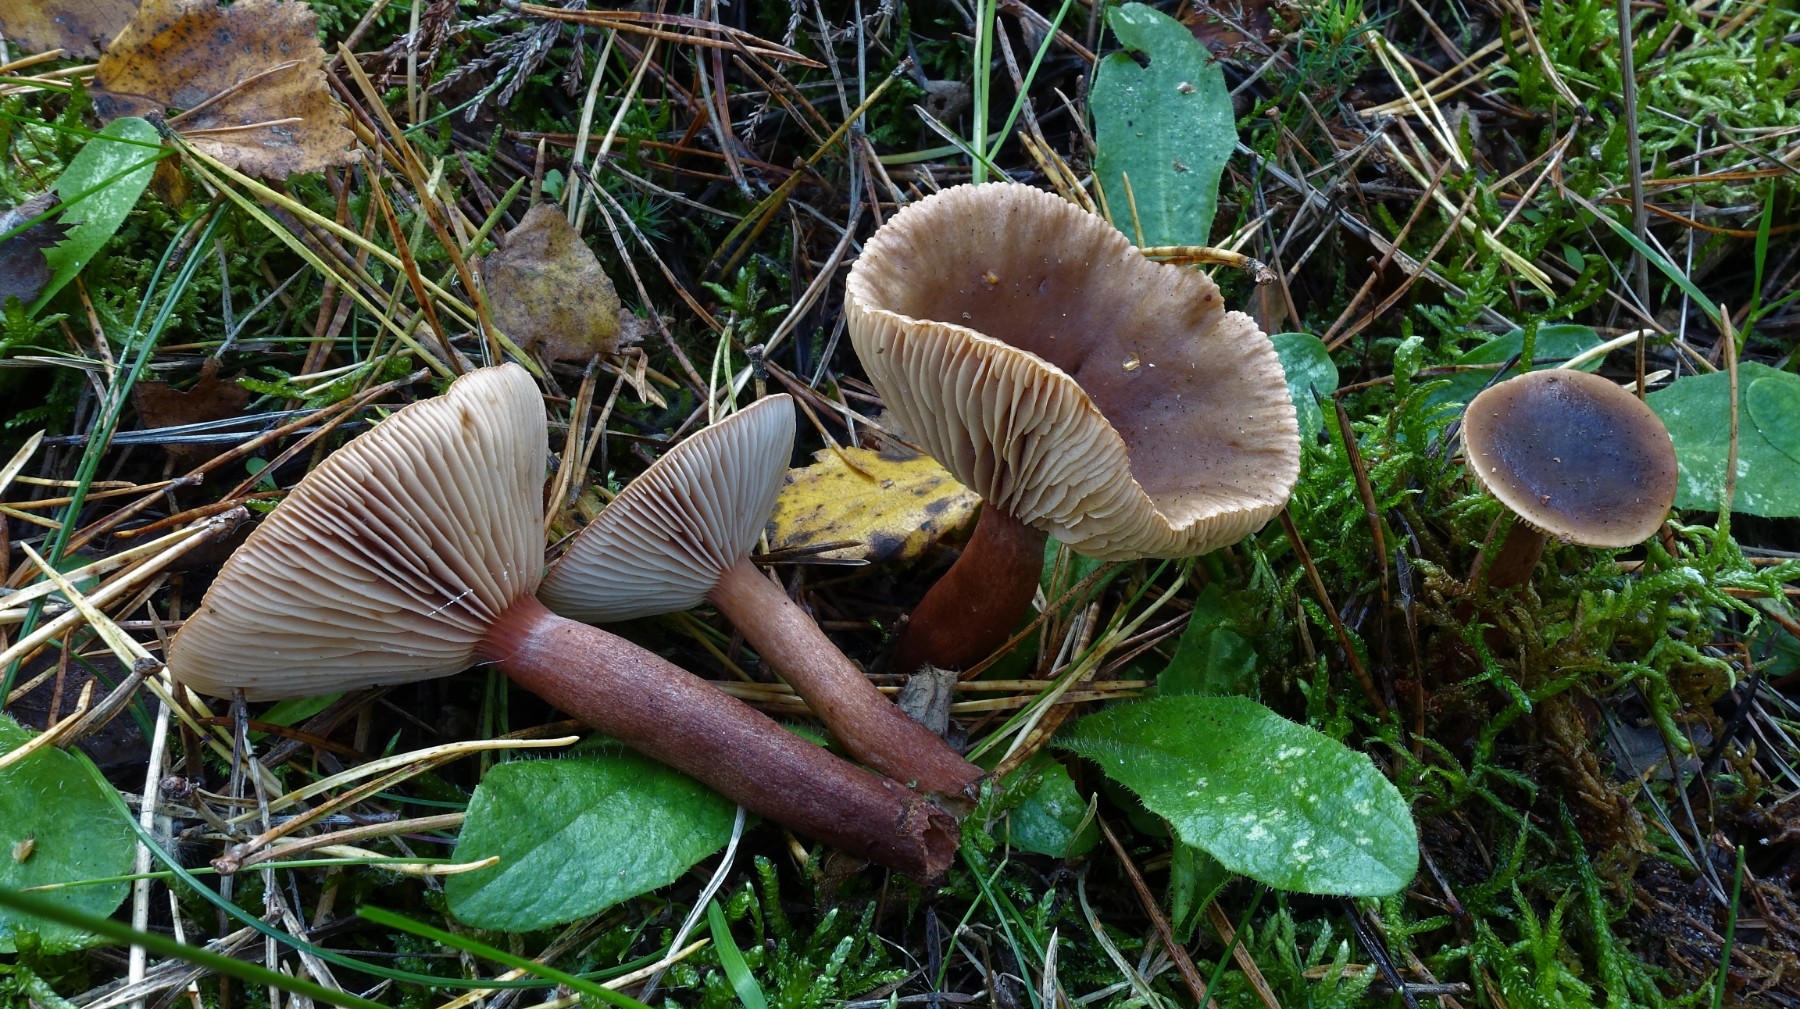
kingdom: Fungi
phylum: Basidiomycota
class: Agaricomycetes
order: Russulales
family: Russulaceae
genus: Lactarius
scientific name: Lactarius hepaticus
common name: leverbrun mælkehat
